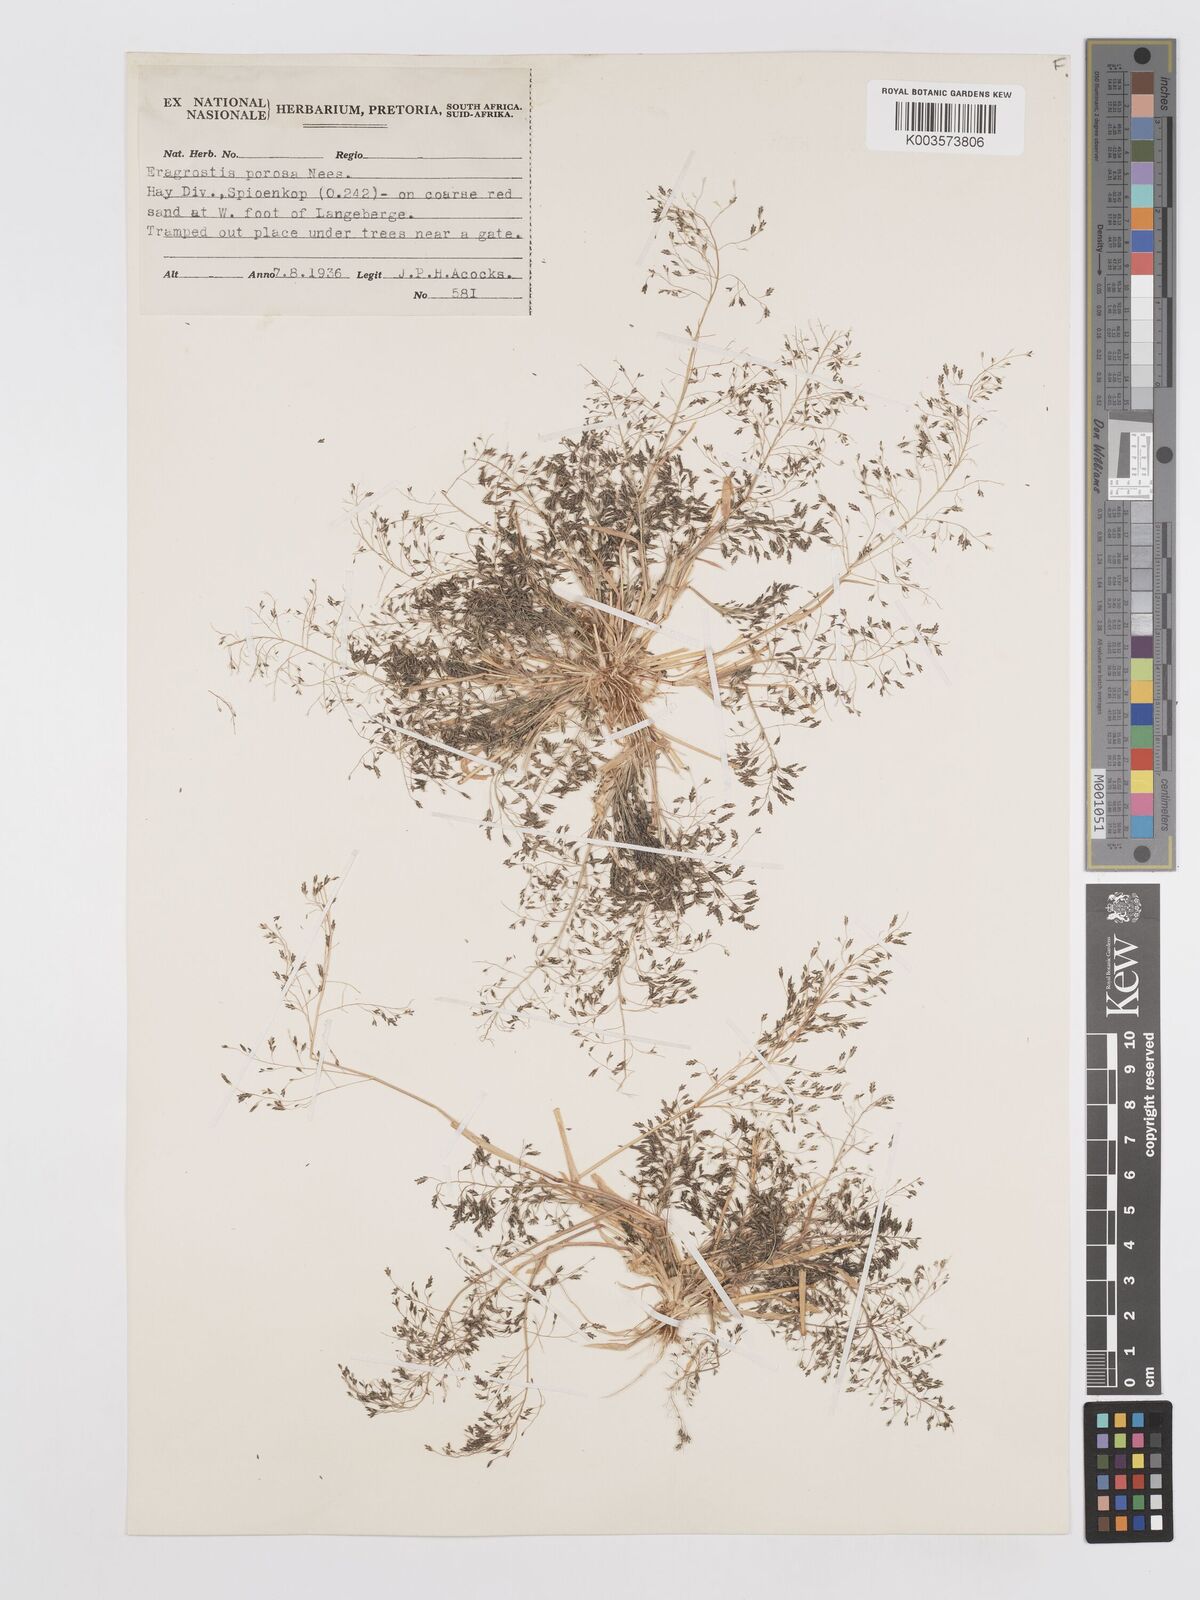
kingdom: Plantae
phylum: Tracheophyta
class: Liliopsida
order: Poales
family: Poaceae
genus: Eragrostis
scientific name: Eragrostis porosa
